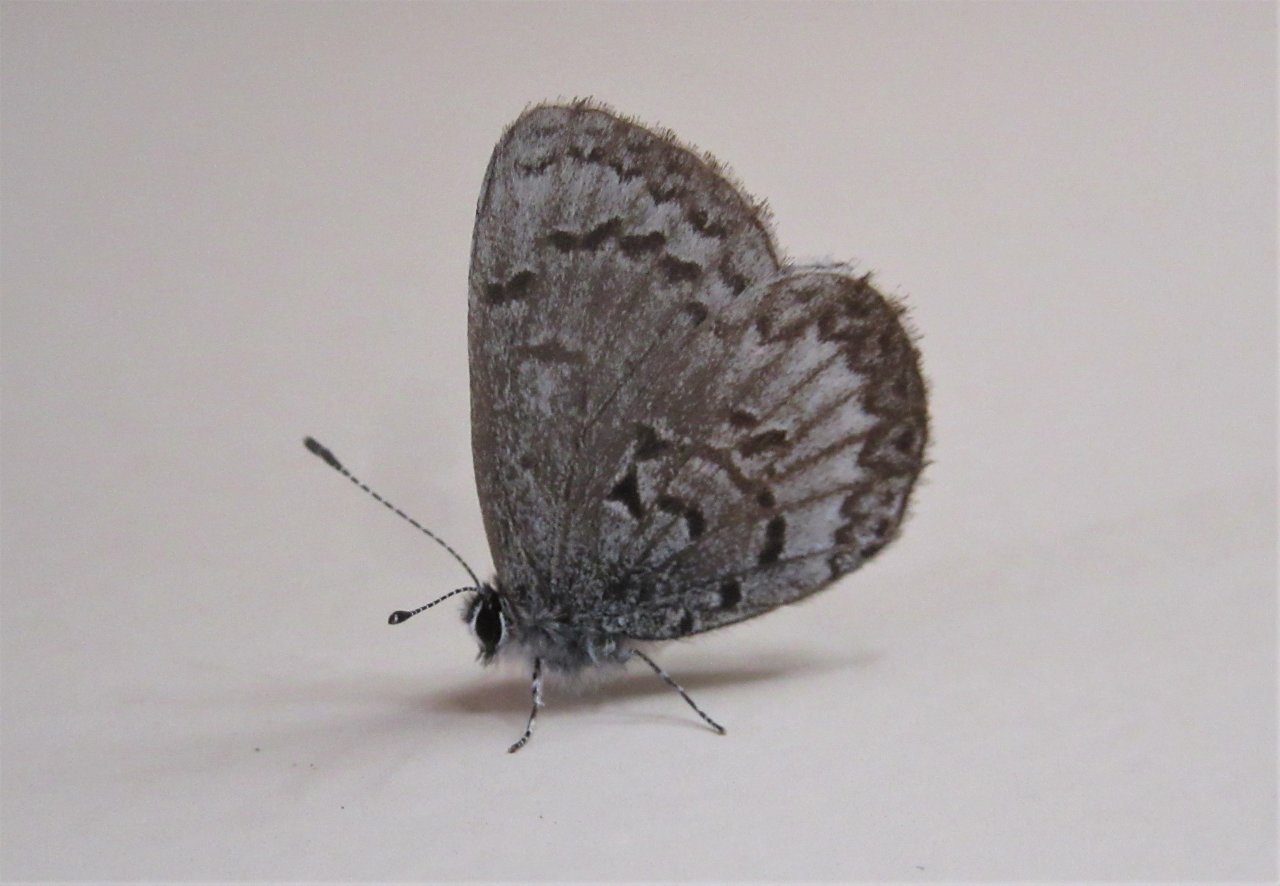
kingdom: Animalia
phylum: Arthropoda
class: Insecta
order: Lepidoptera
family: Lycaenidae
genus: Celastrina
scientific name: Celastrina lucia
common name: Northern Spring Azure
